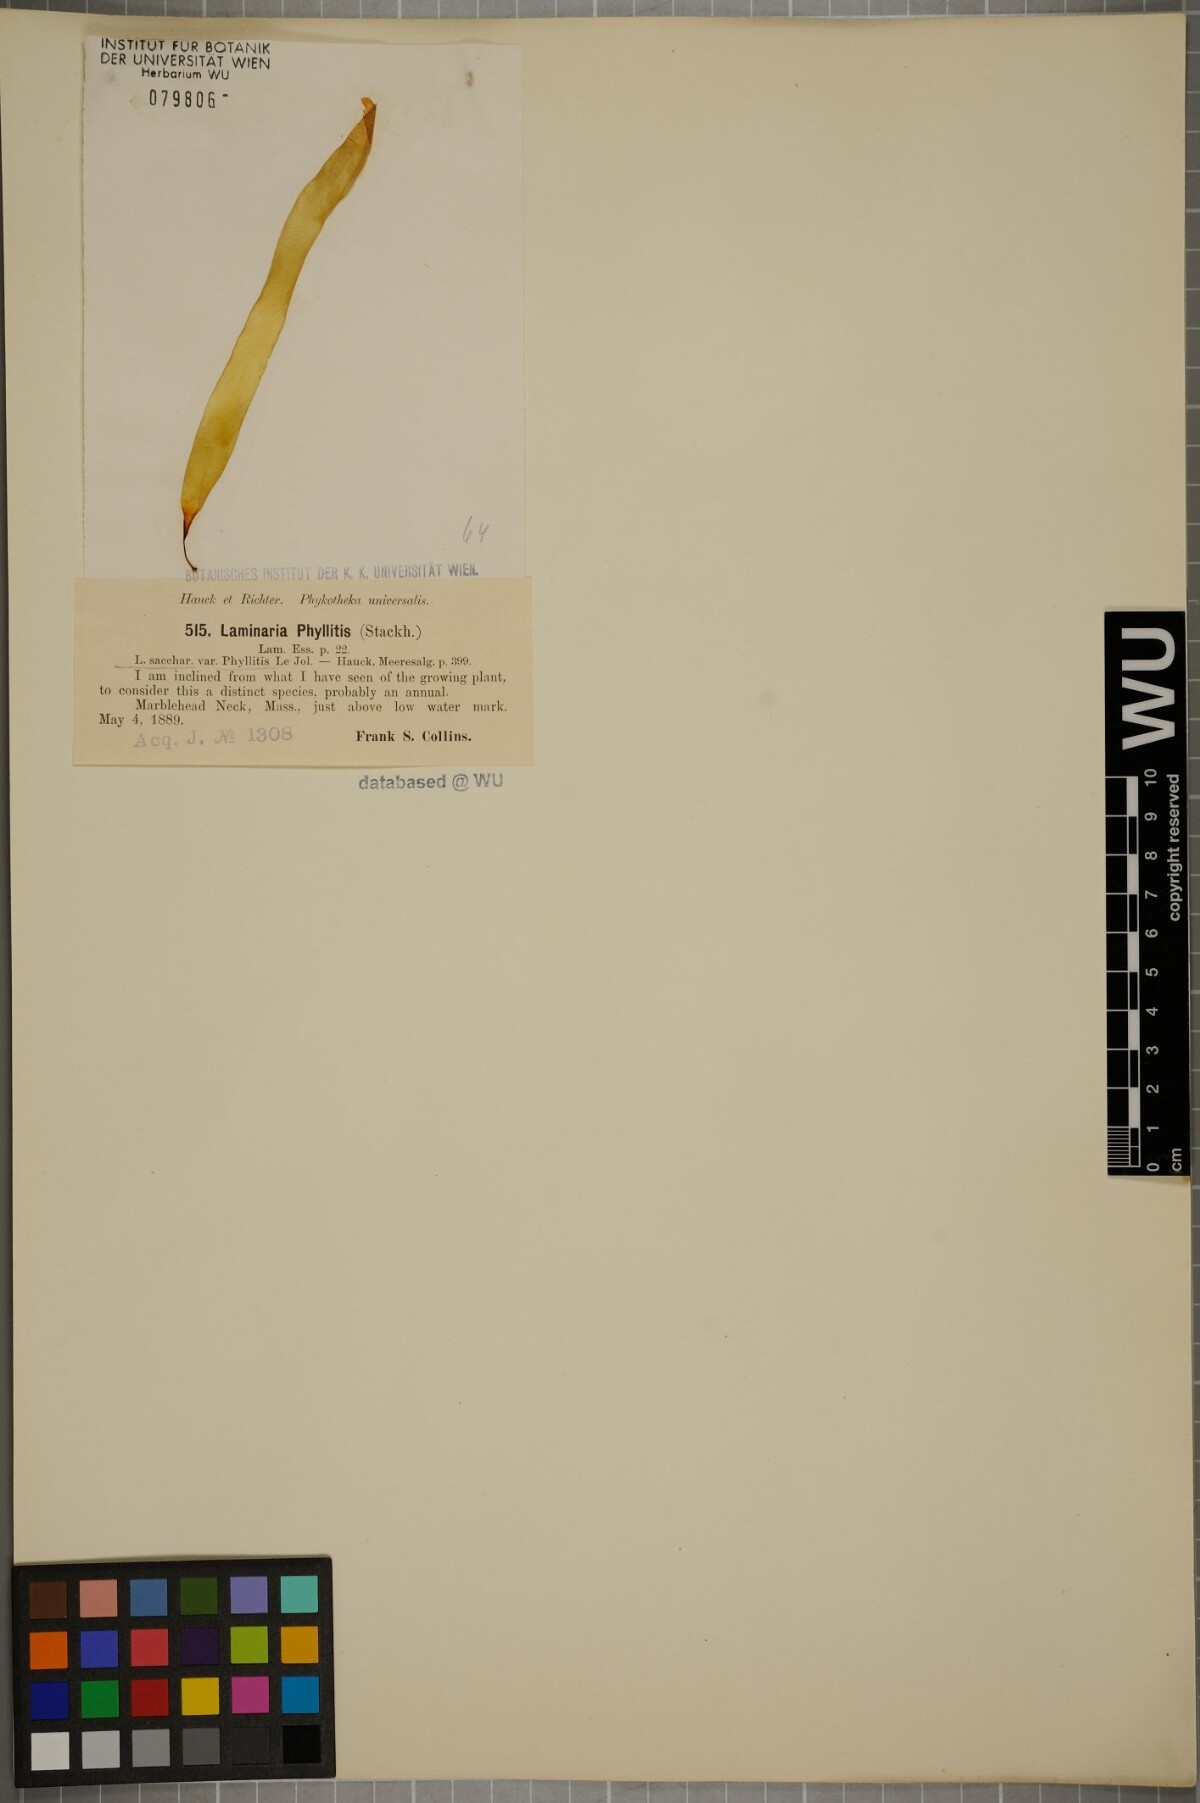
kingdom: Chromista
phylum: Ochrophyta
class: Phaeophyceae
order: Laminariales
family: Laminariaceae
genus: Saccharina
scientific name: Saccharina latissima
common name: Poor man's weather glass
